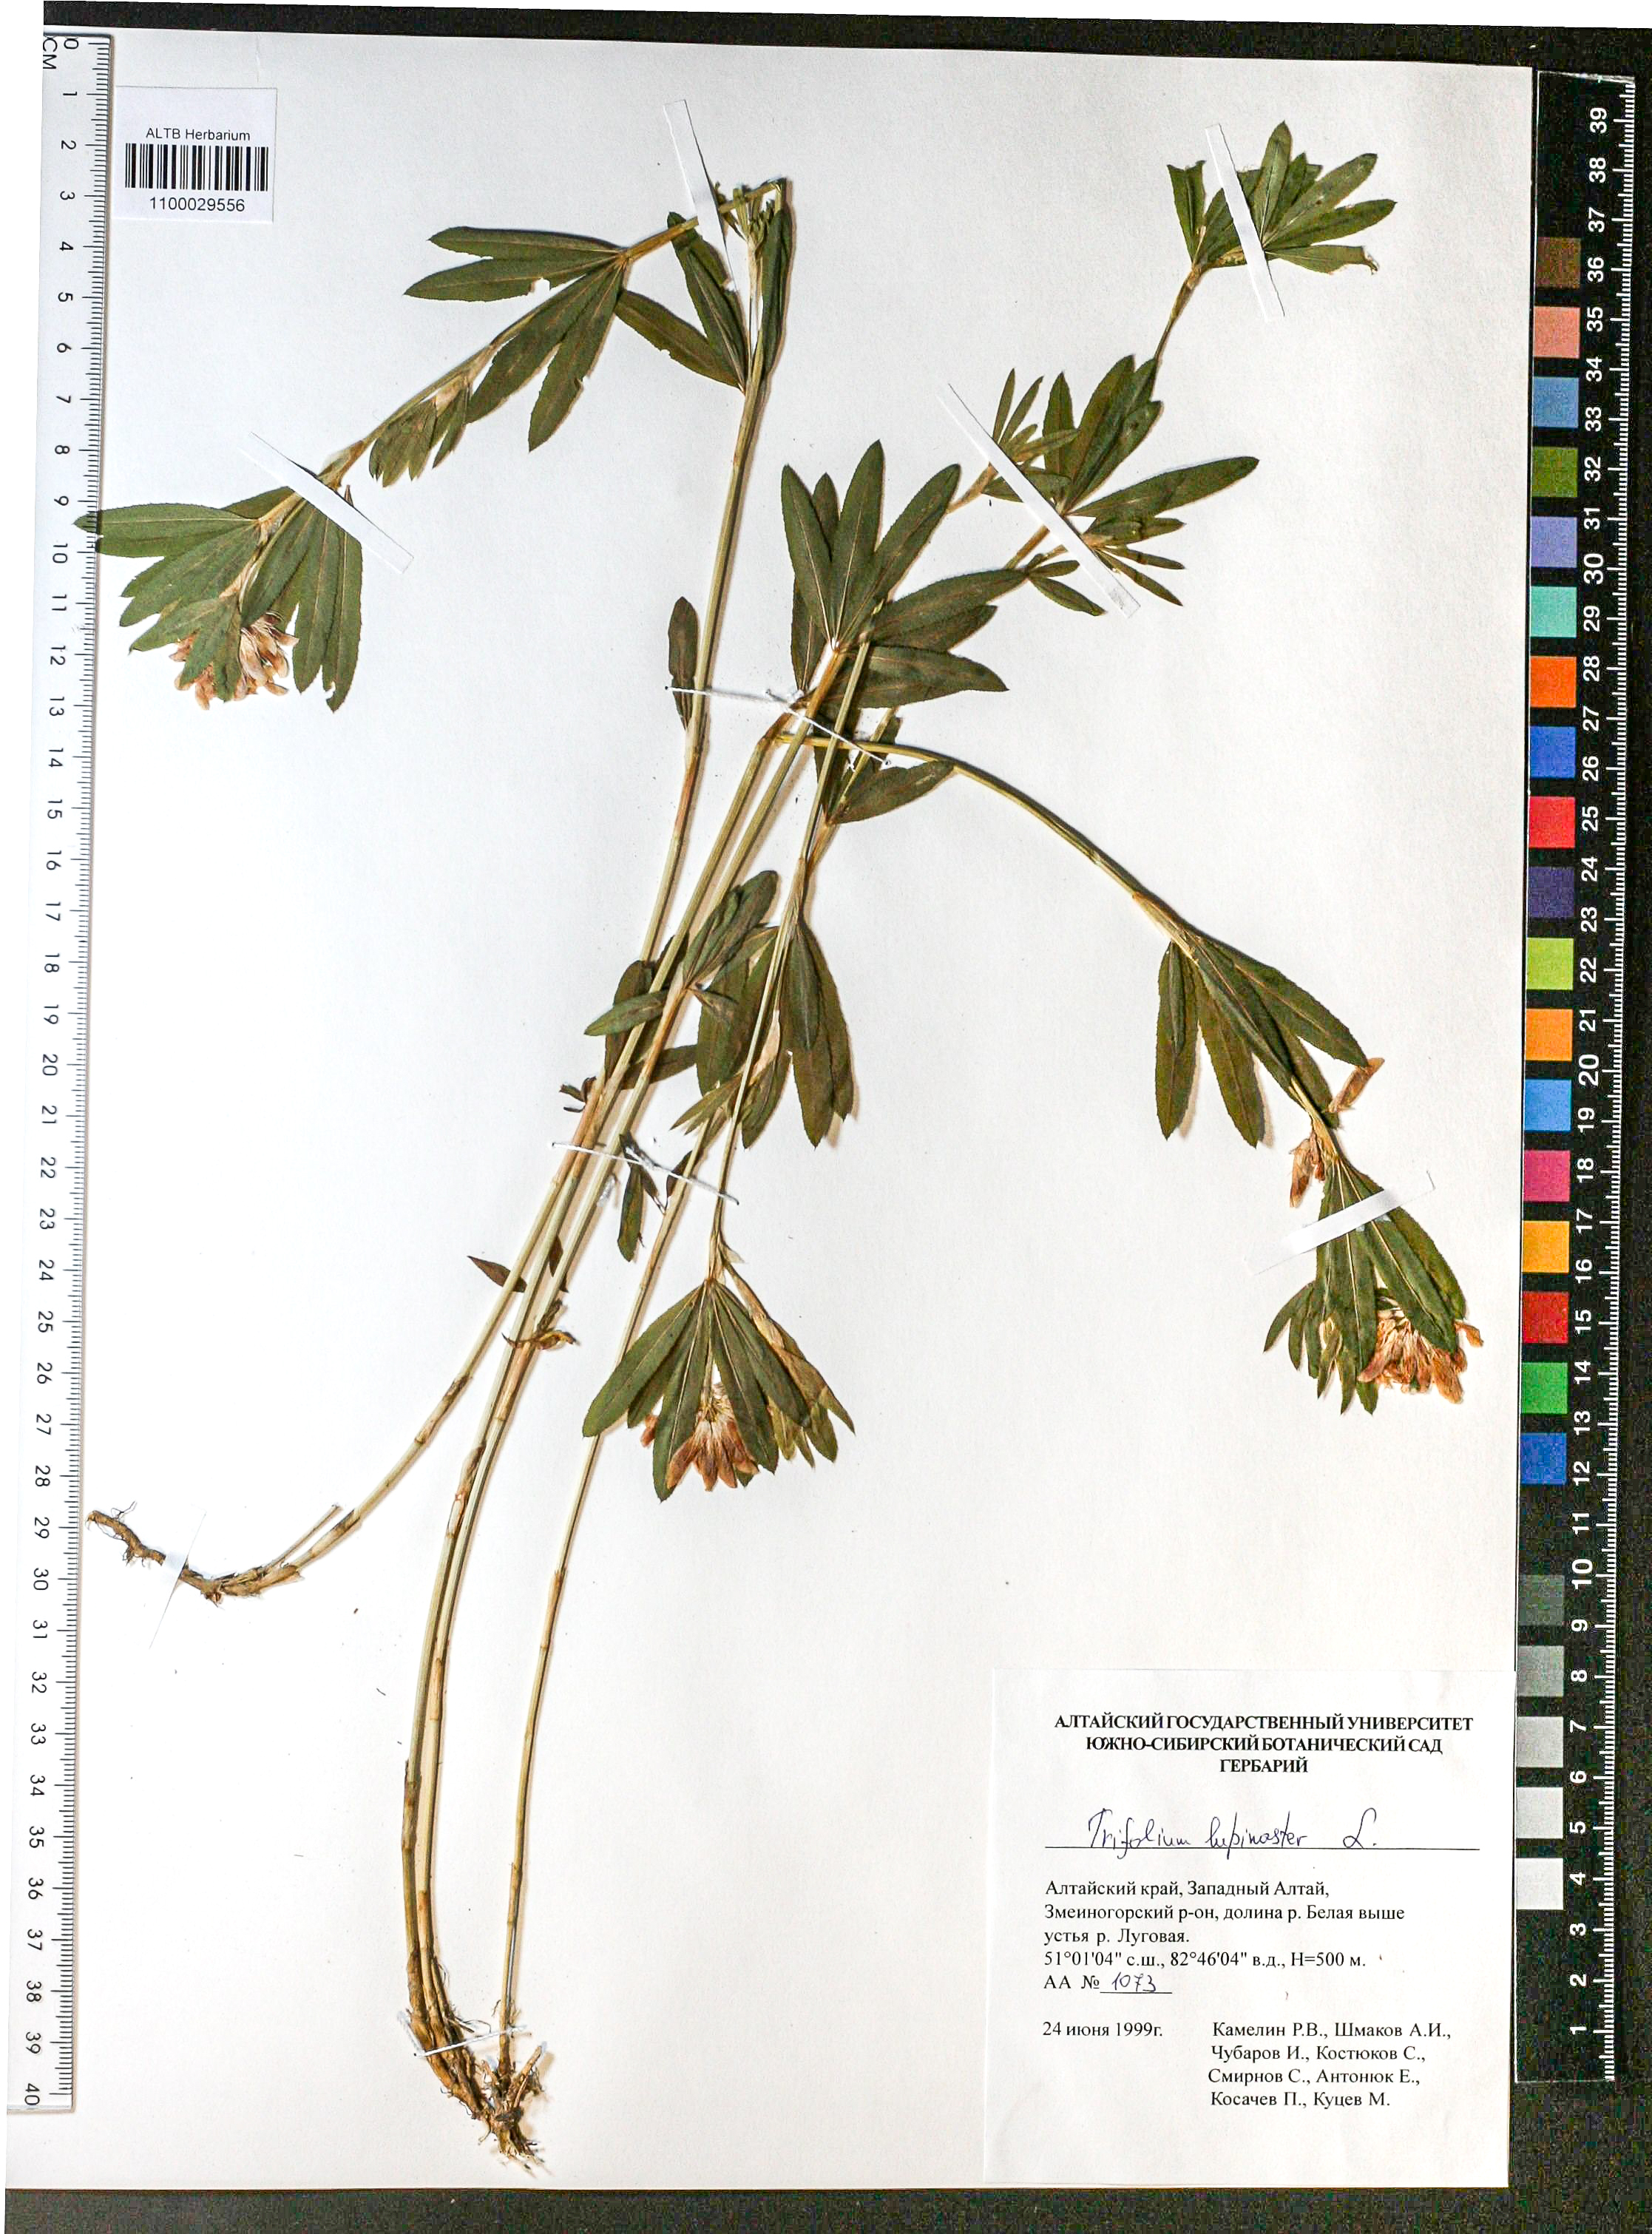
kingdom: Plantae
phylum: Tracheophyta
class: Magnoliopsida
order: Fabales
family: Fabaceae
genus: Trifolium
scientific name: Trifolium lupinaster
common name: Lupine clover
